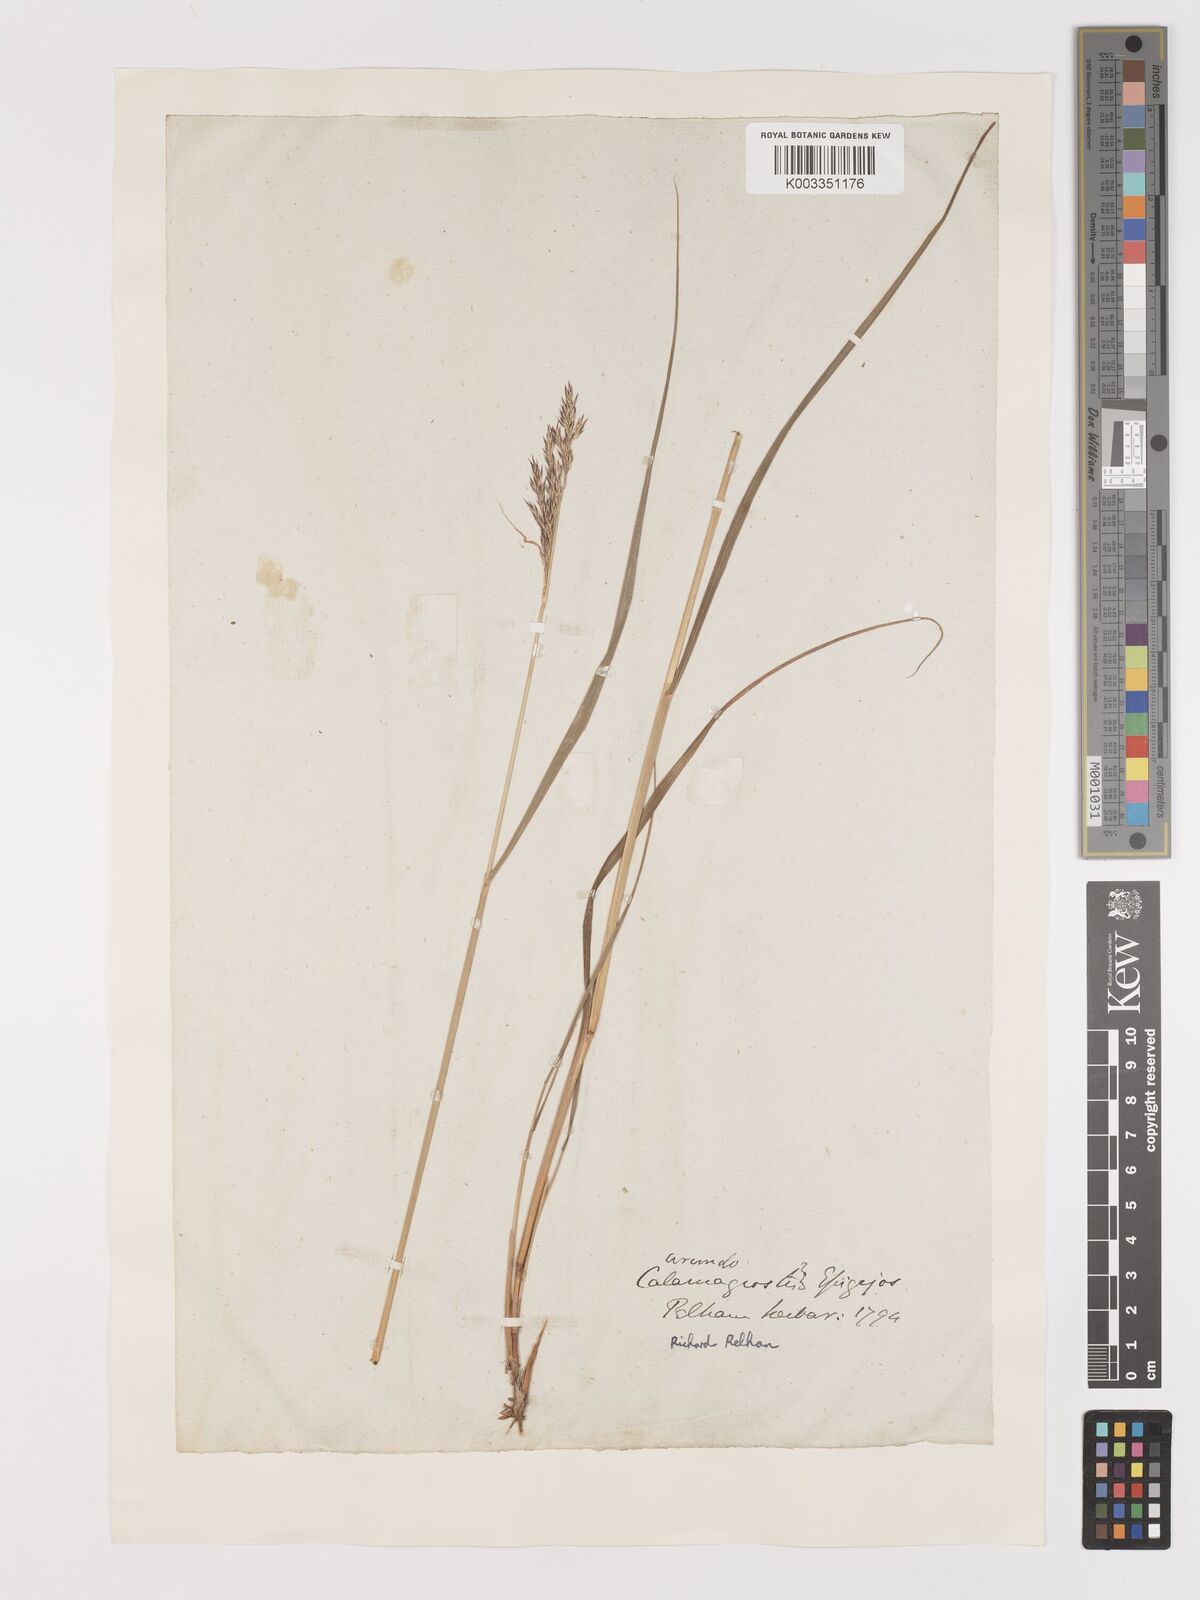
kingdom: Plantae
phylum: Tracheophyta
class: Liliopsida
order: Poales
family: Poaceae
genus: Calamagrostis
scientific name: Calamagrostis
